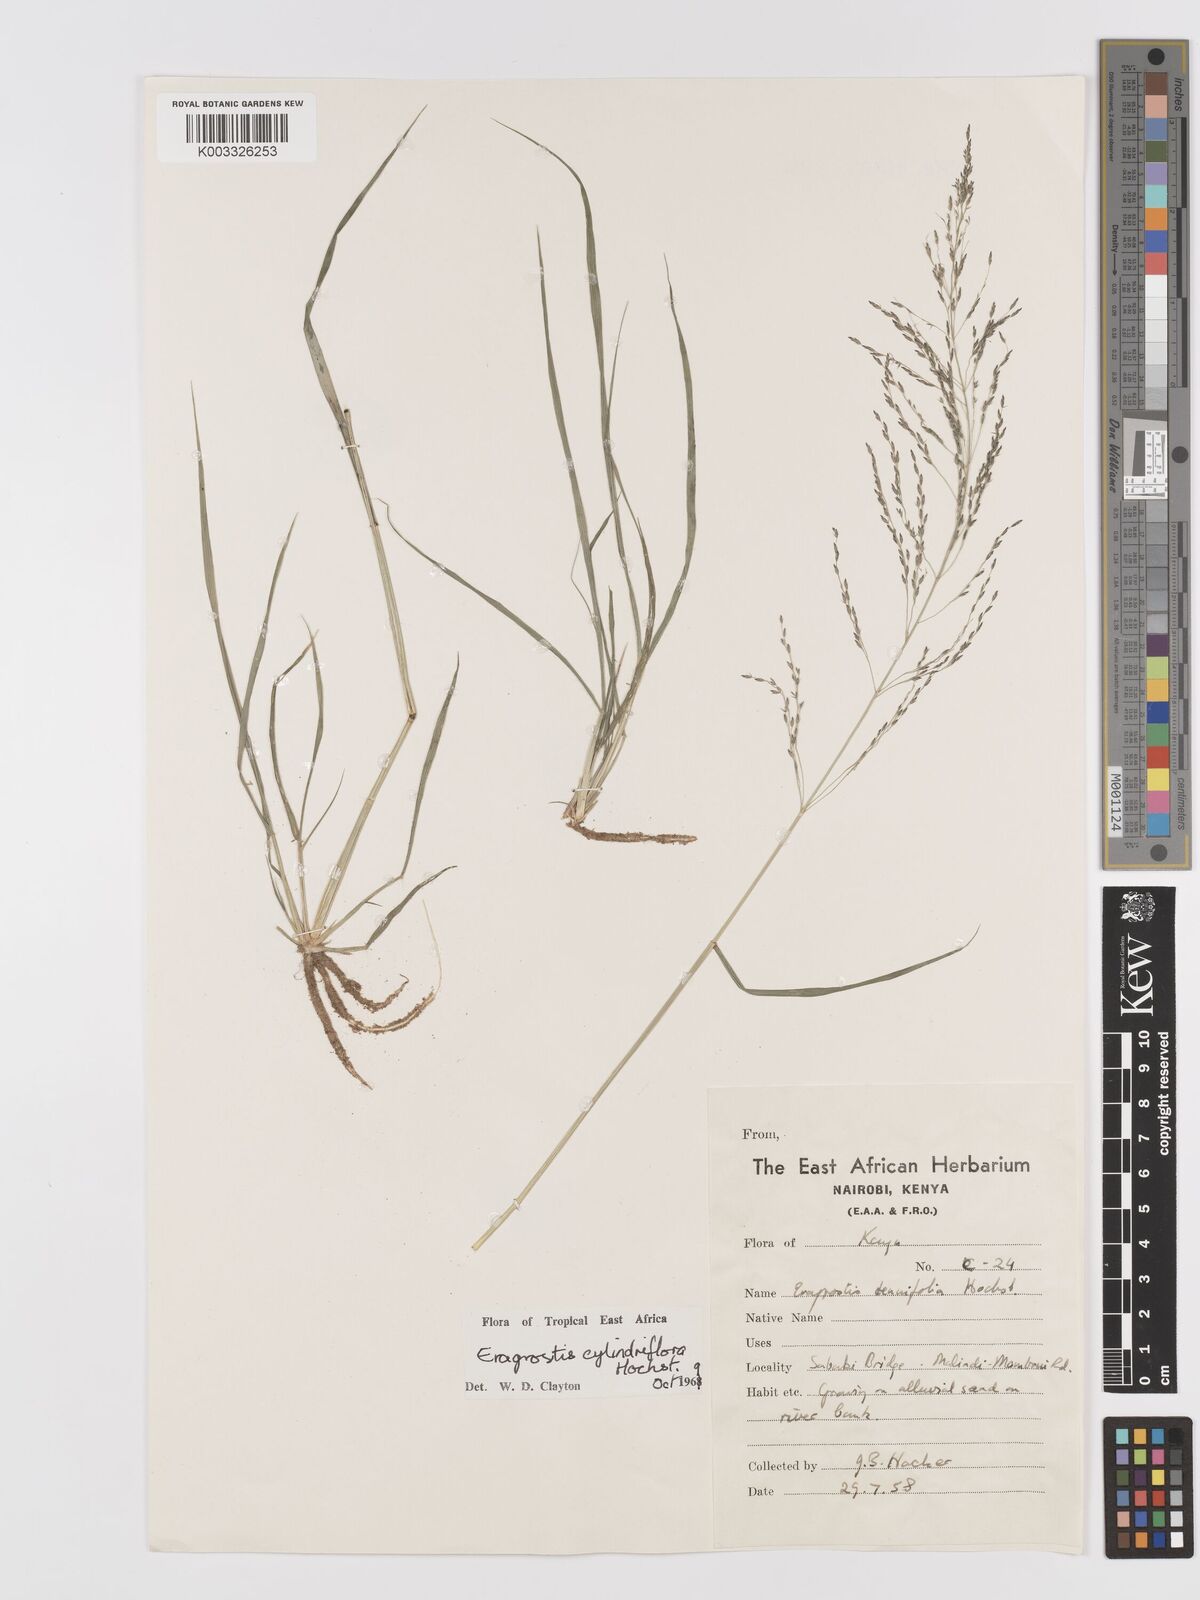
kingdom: Plantae
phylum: Tracheophyta
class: Liliopsida
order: Poales
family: Poaceae
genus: Eragrostis
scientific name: Eragrostis cylindriflora
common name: Cylinderflower lovegrass
